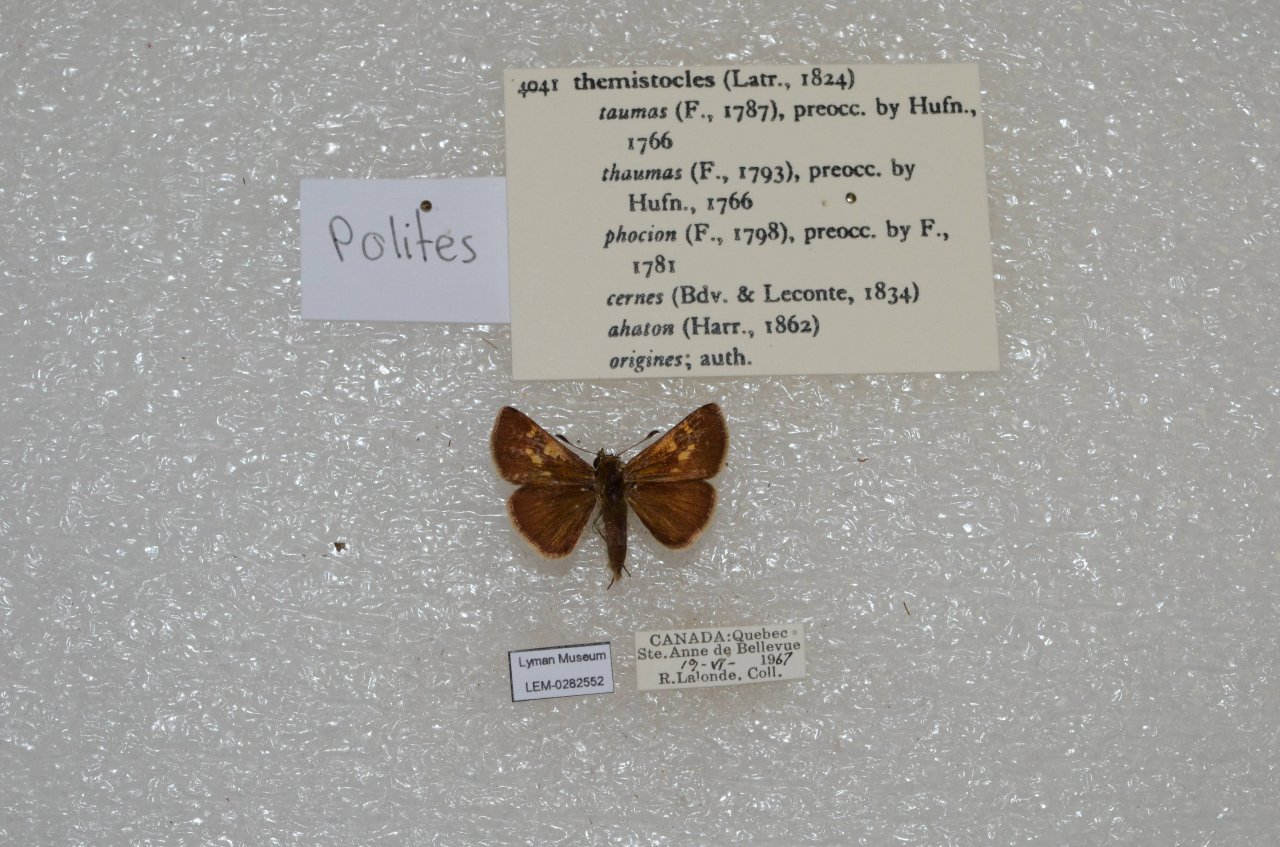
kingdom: Animalia
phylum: Arthropoda
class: Insecta
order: Lepidoptera
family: Hesperiidae
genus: Polites
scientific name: Polites themistocles
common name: Tawny-edged Skipper
